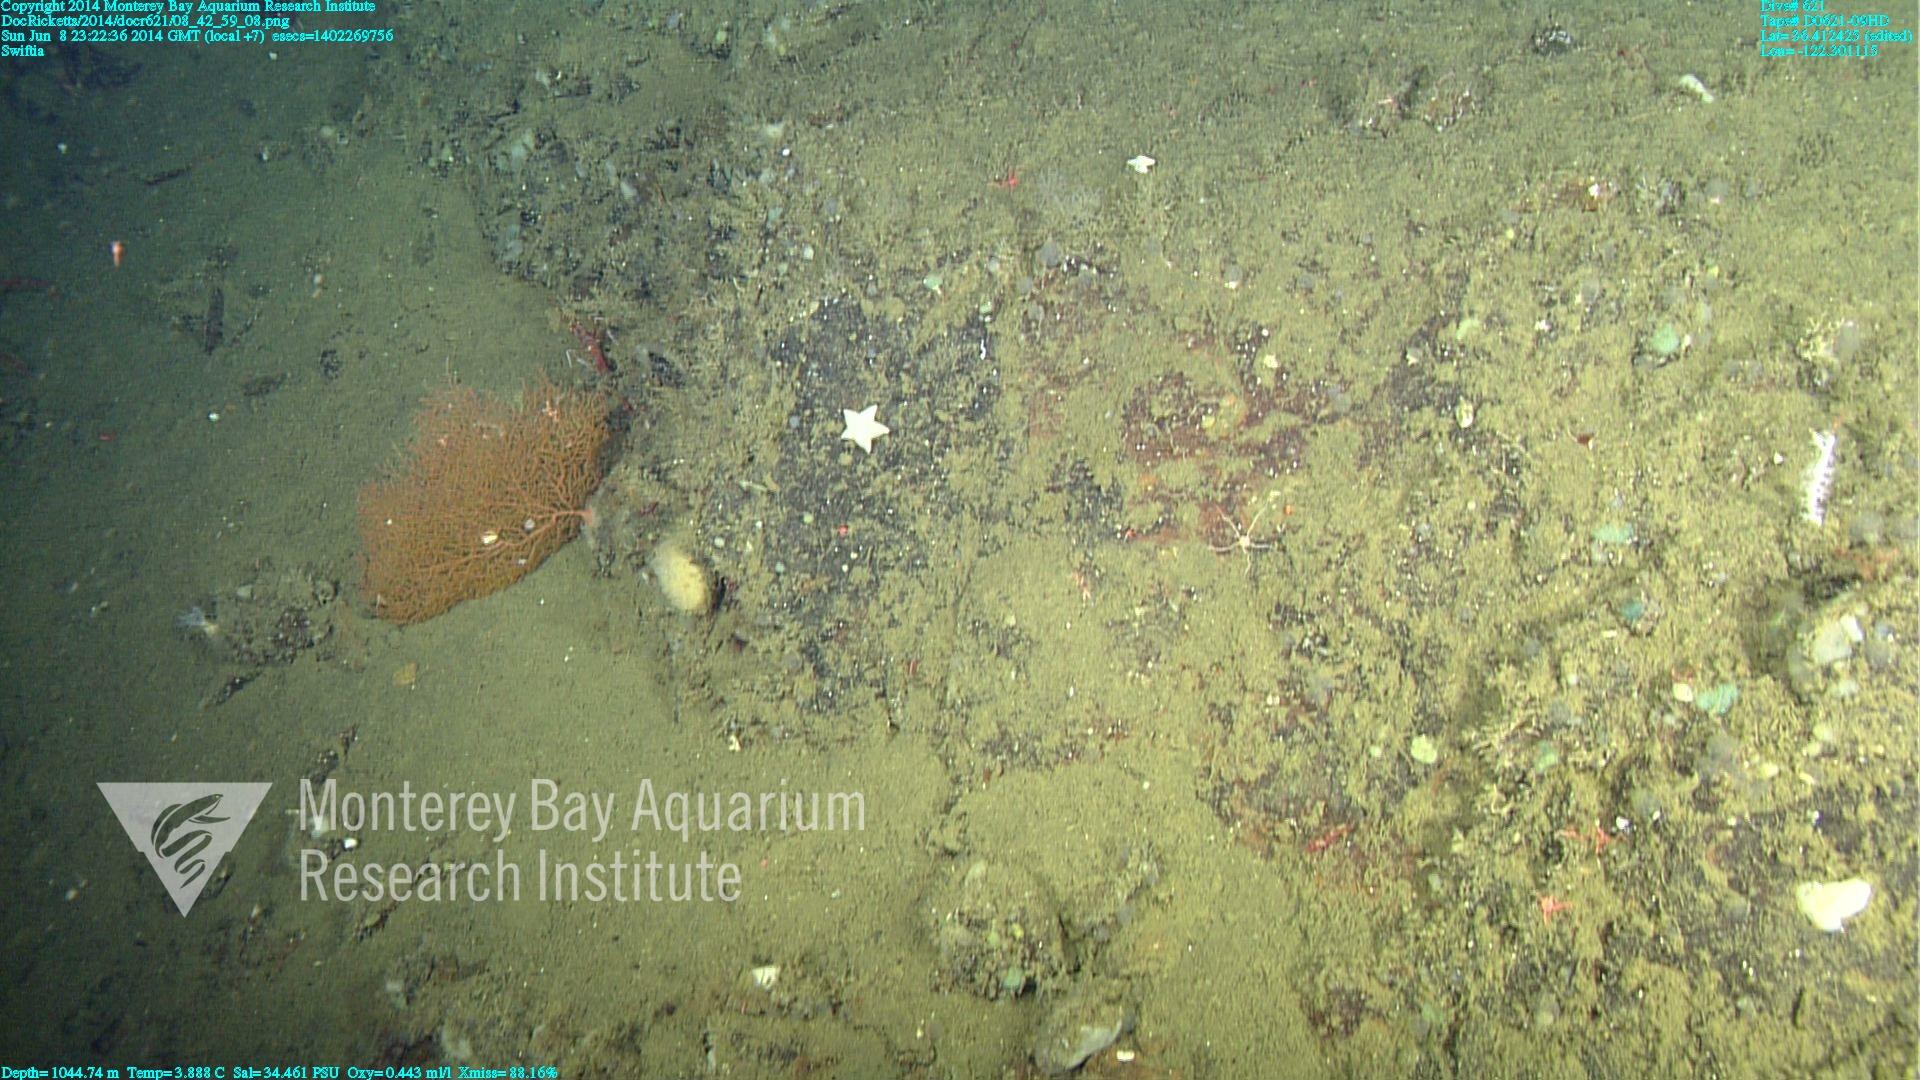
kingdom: Animalia
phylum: Cnidaria
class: Anthozoa
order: Malacalcyonacea
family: Plexauridae
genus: Swiftia
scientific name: Swiftia
